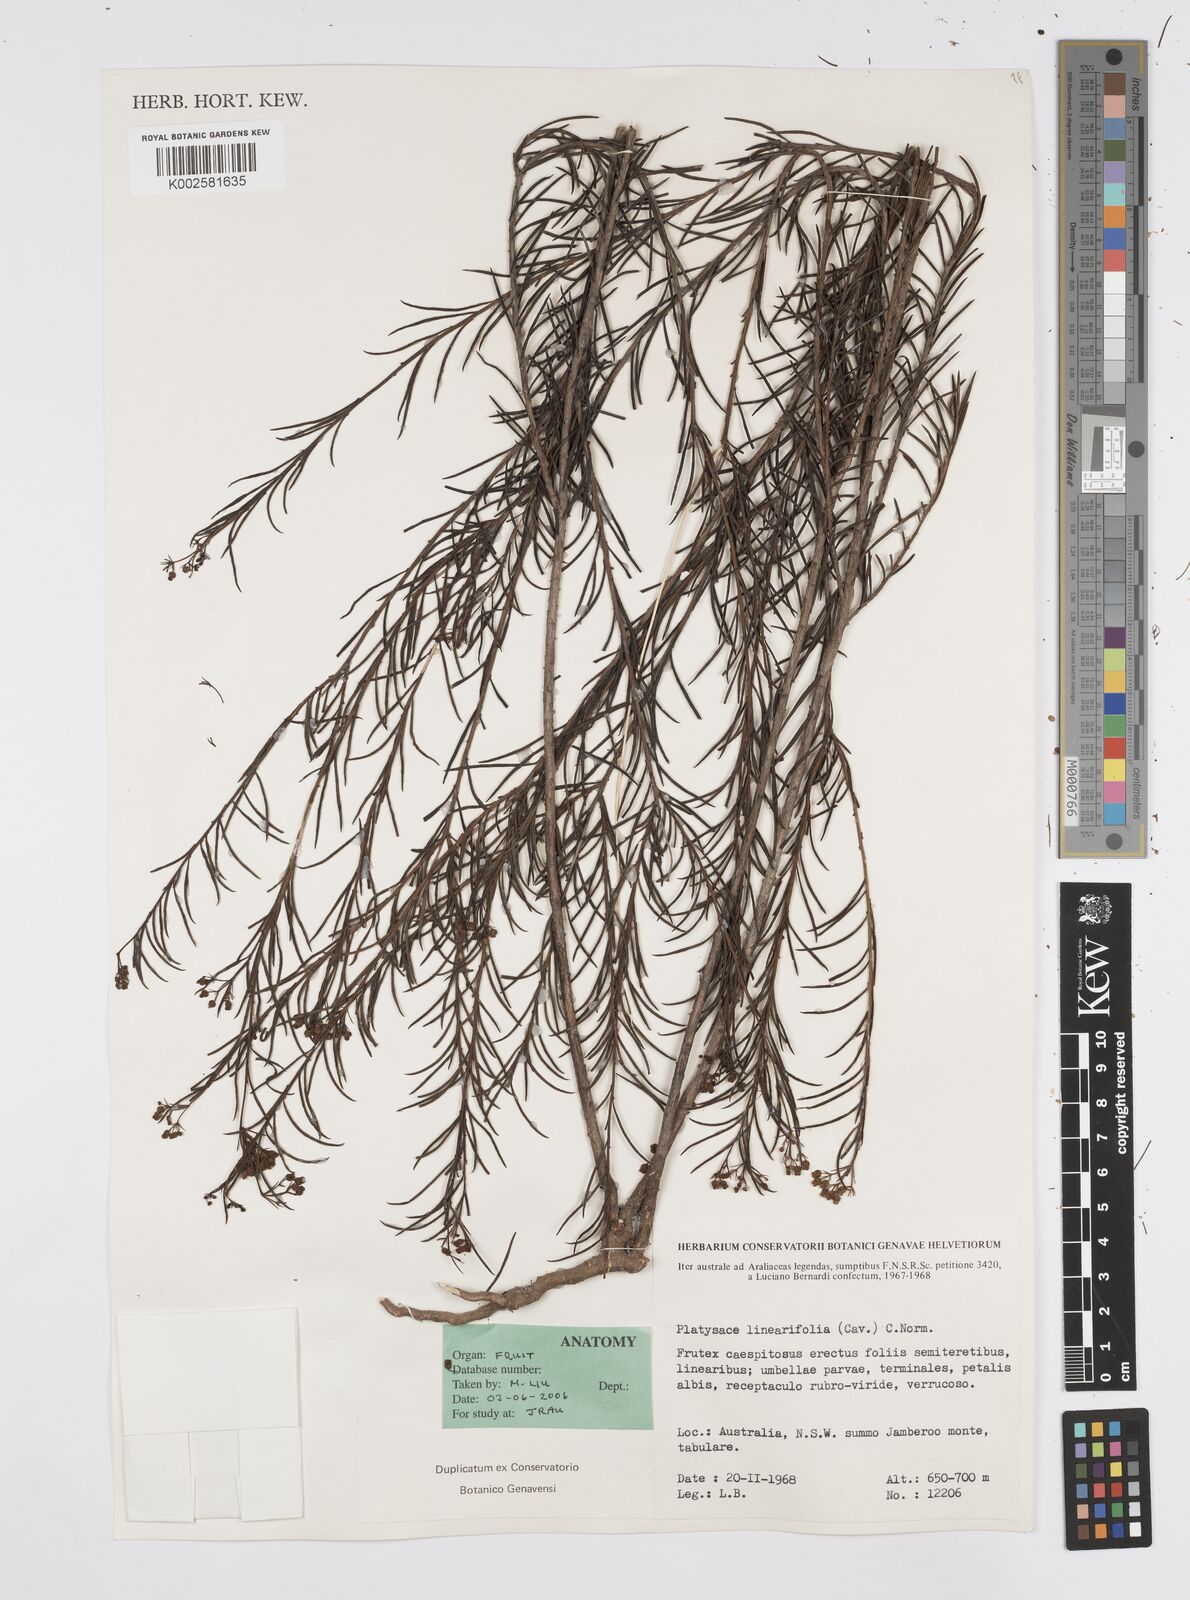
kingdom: Plantae
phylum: Tracheophyta
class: Magnoliopsida
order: Apiales
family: Apiaceae
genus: Platysace
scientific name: Platysace linearifolia
